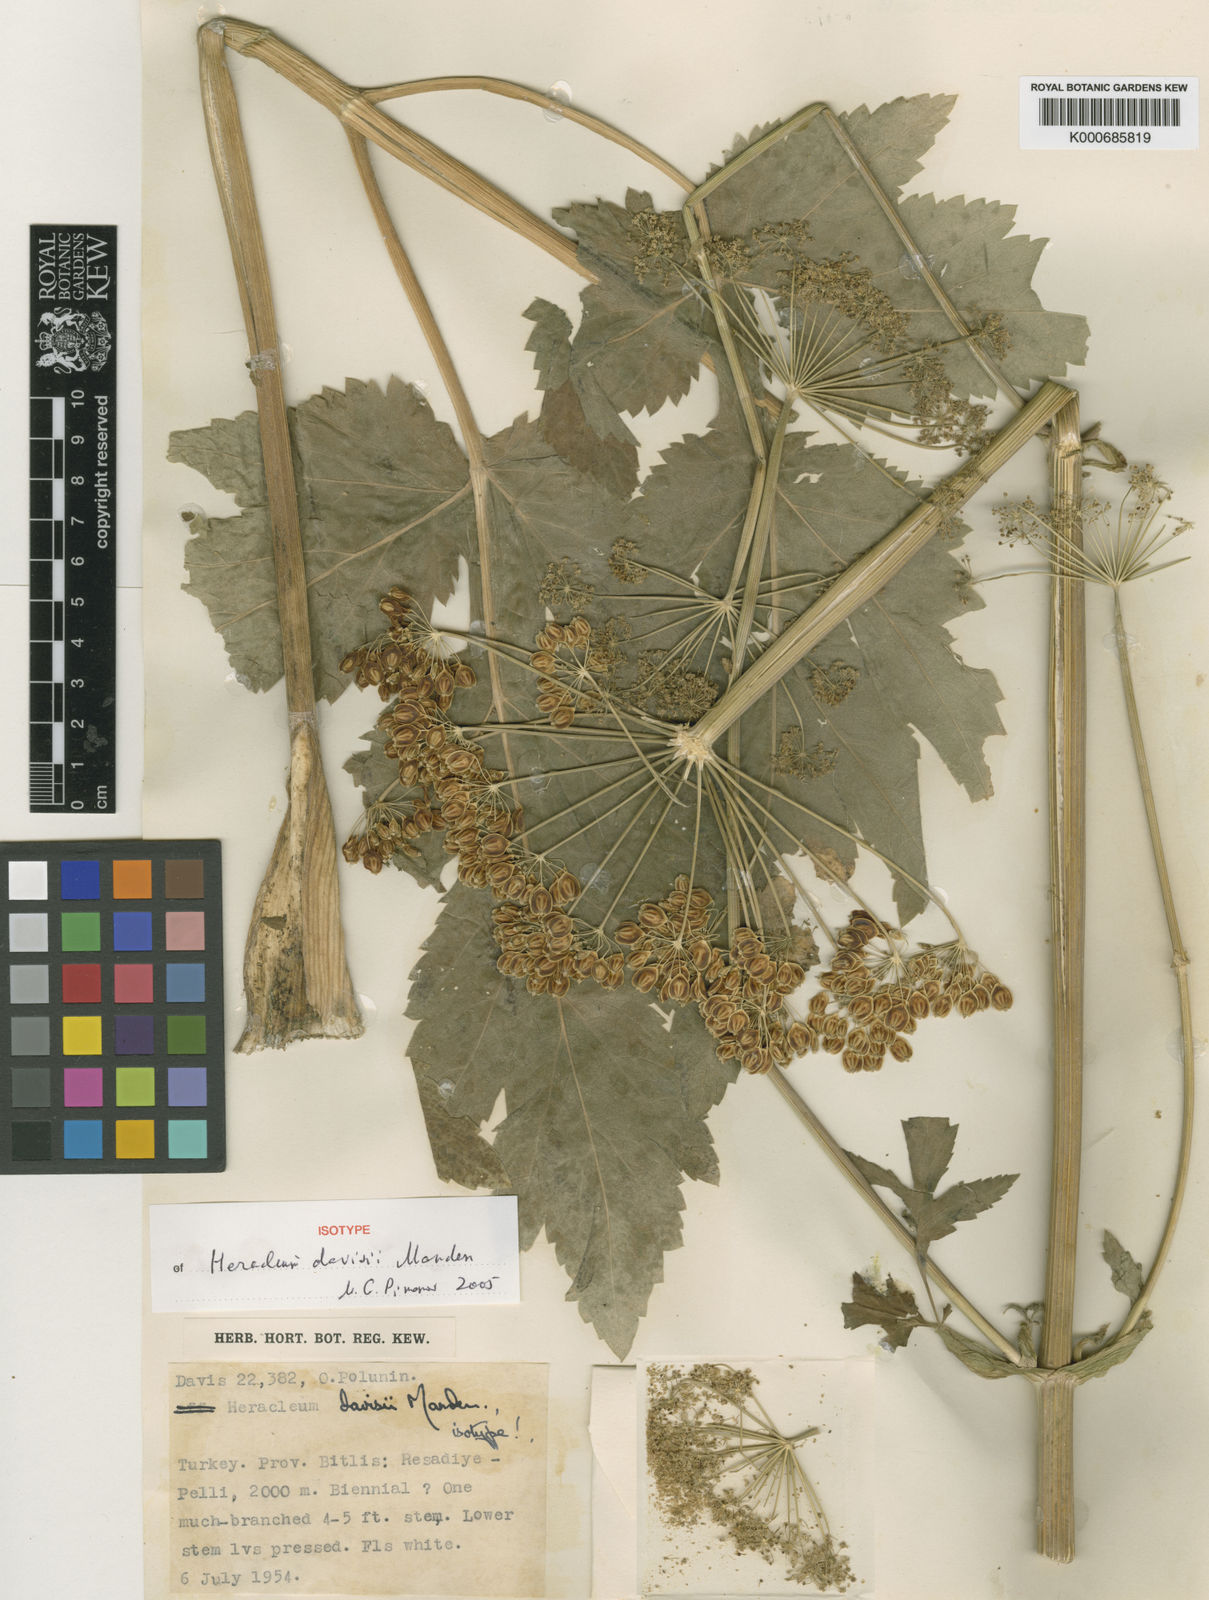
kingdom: Plantae
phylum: Tracheophyta
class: Magnoliopsida
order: Apiales
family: Apiaceae
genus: Heracleum
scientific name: Heracleum crenatifolium
